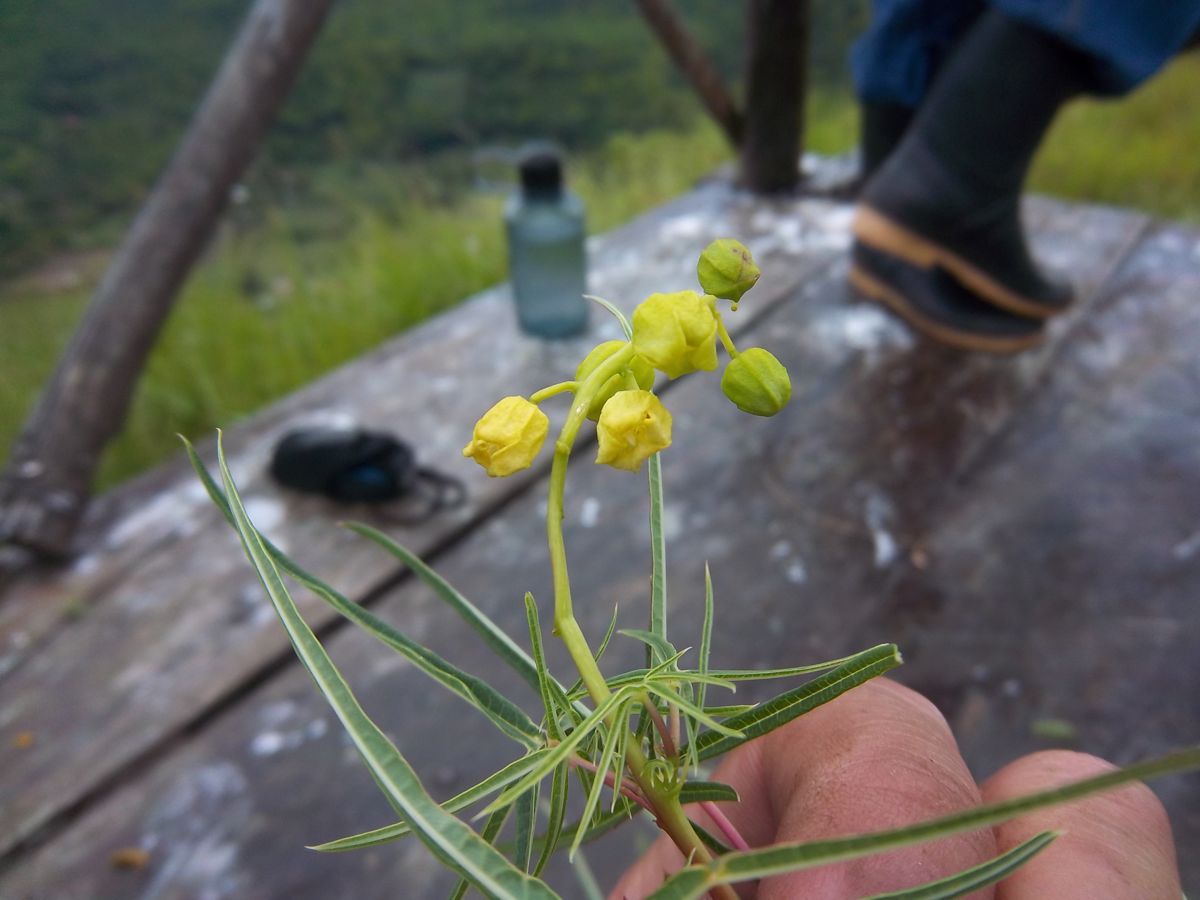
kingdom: Plantae
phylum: Tracheophyta
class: Magnoliopsida
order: Malpighiales
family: Euphorbiaceae
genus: Manihot
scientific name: Manihot rhomboidea
